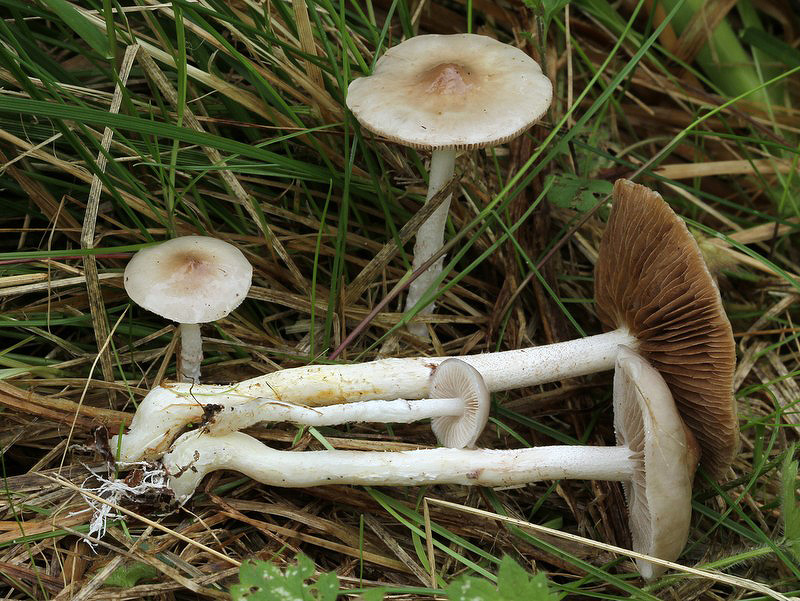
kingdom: Fungi
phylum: Basidiomycota
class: Agaricomycetes
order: Agaricales
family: Strophariaceae
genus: Stropharia
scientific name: Stropharia inuncta
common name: lillabrun bredblad
